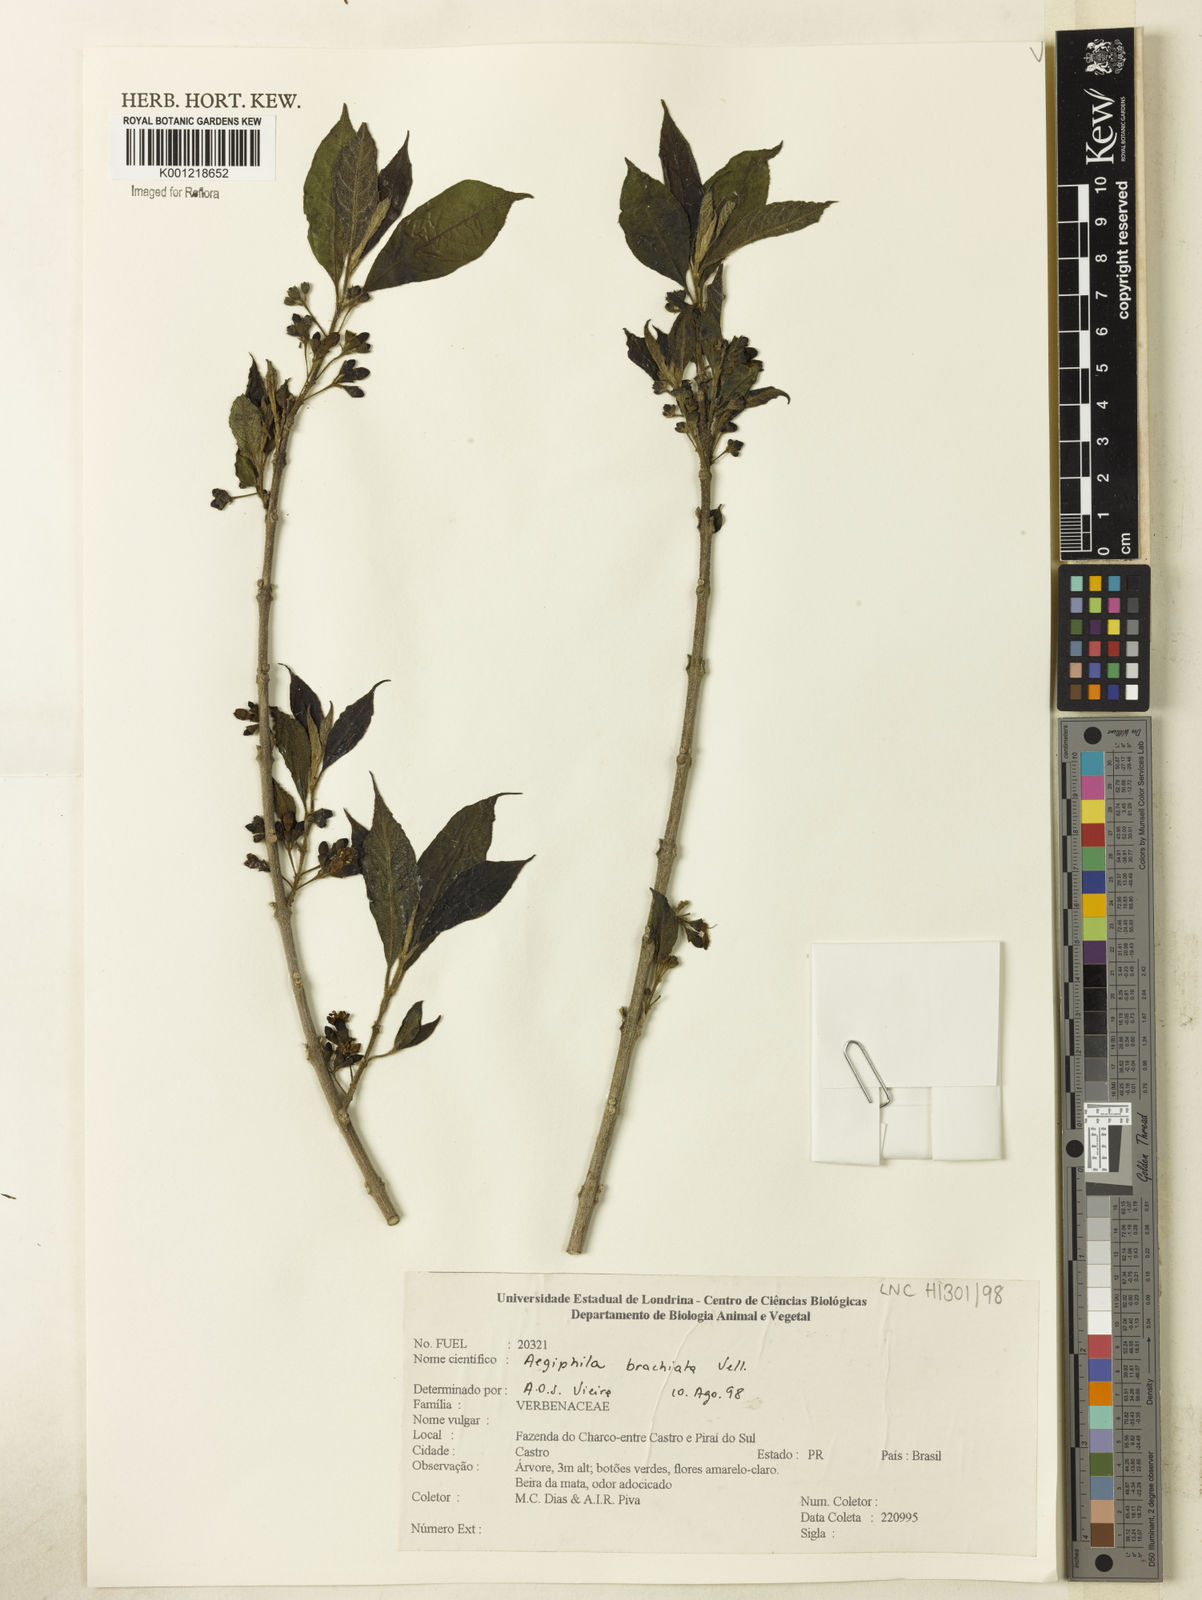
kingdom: Plantae
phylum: Tracheophyta
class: Magnoliopsida
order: Lamiales
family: Lamiaceae
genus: Aegiphila
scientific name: Aegiphila brachiata
